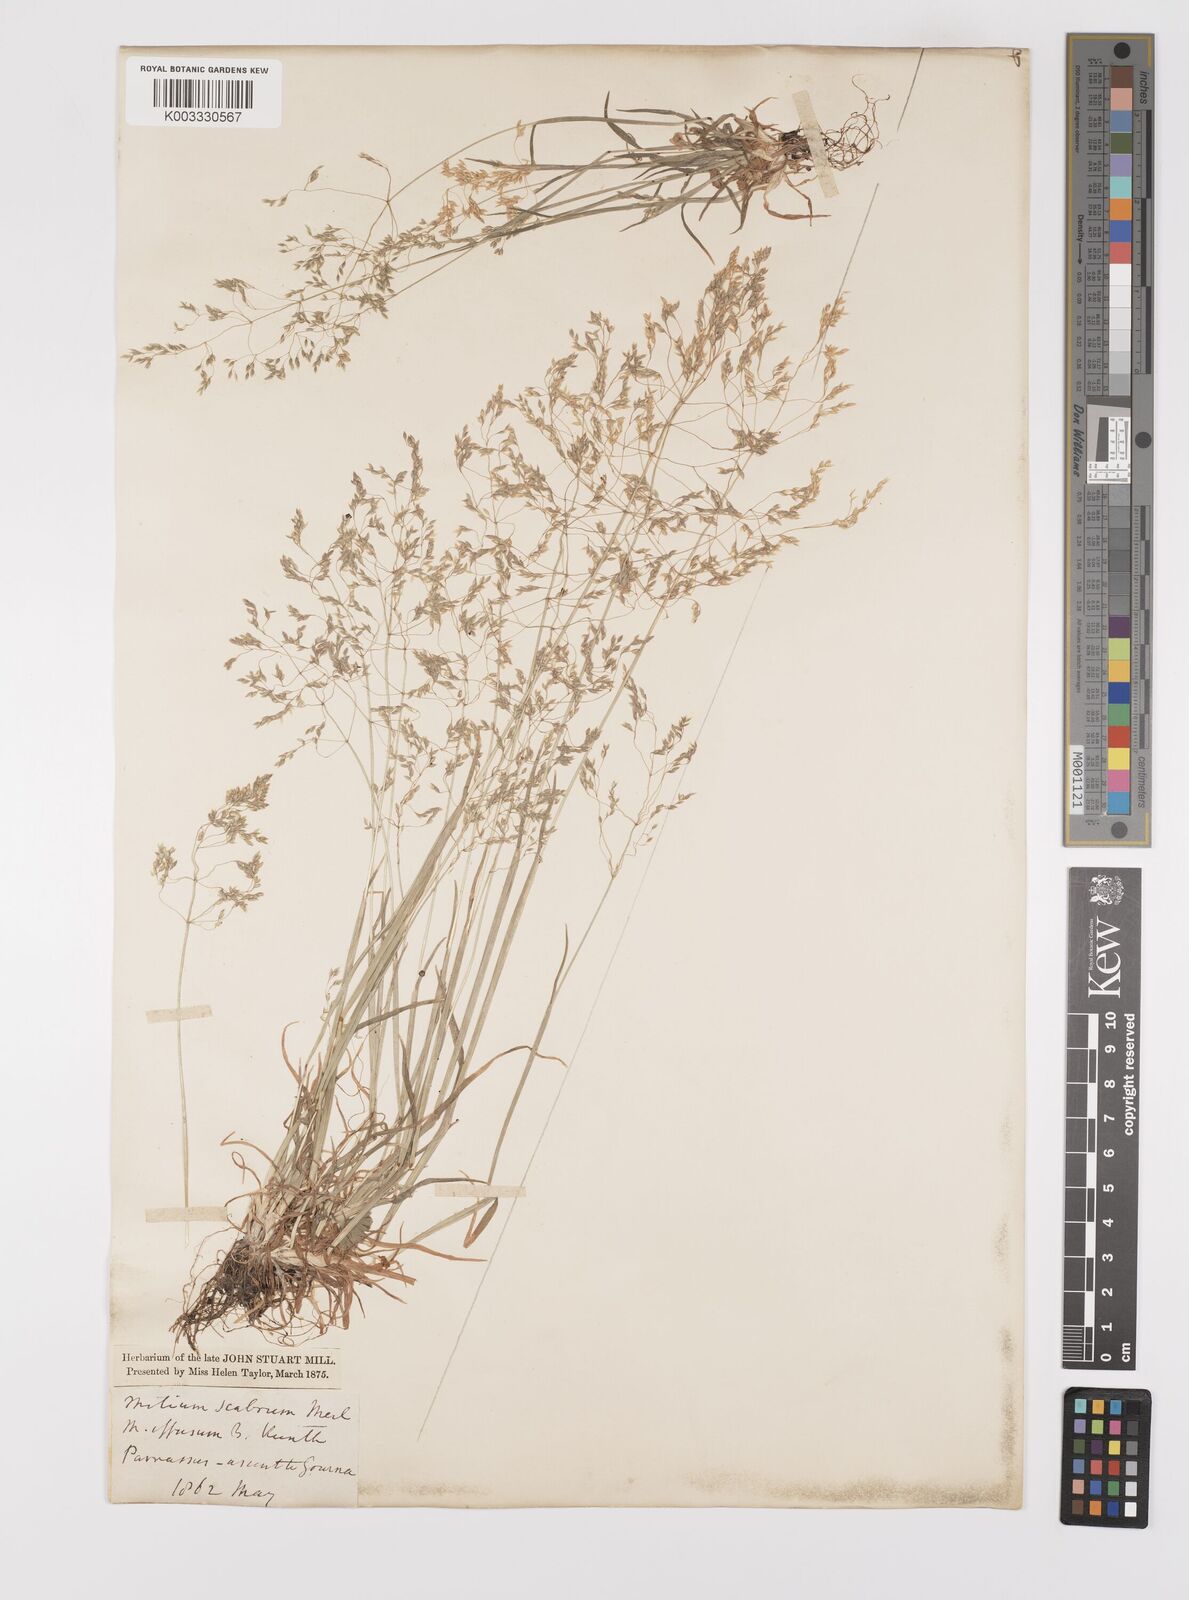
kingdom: Plantae
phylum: Tracheophyta
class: Liliopsida
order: Poales
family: Poaceae
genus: Milium
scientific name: Milium vernale
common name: Early millet
